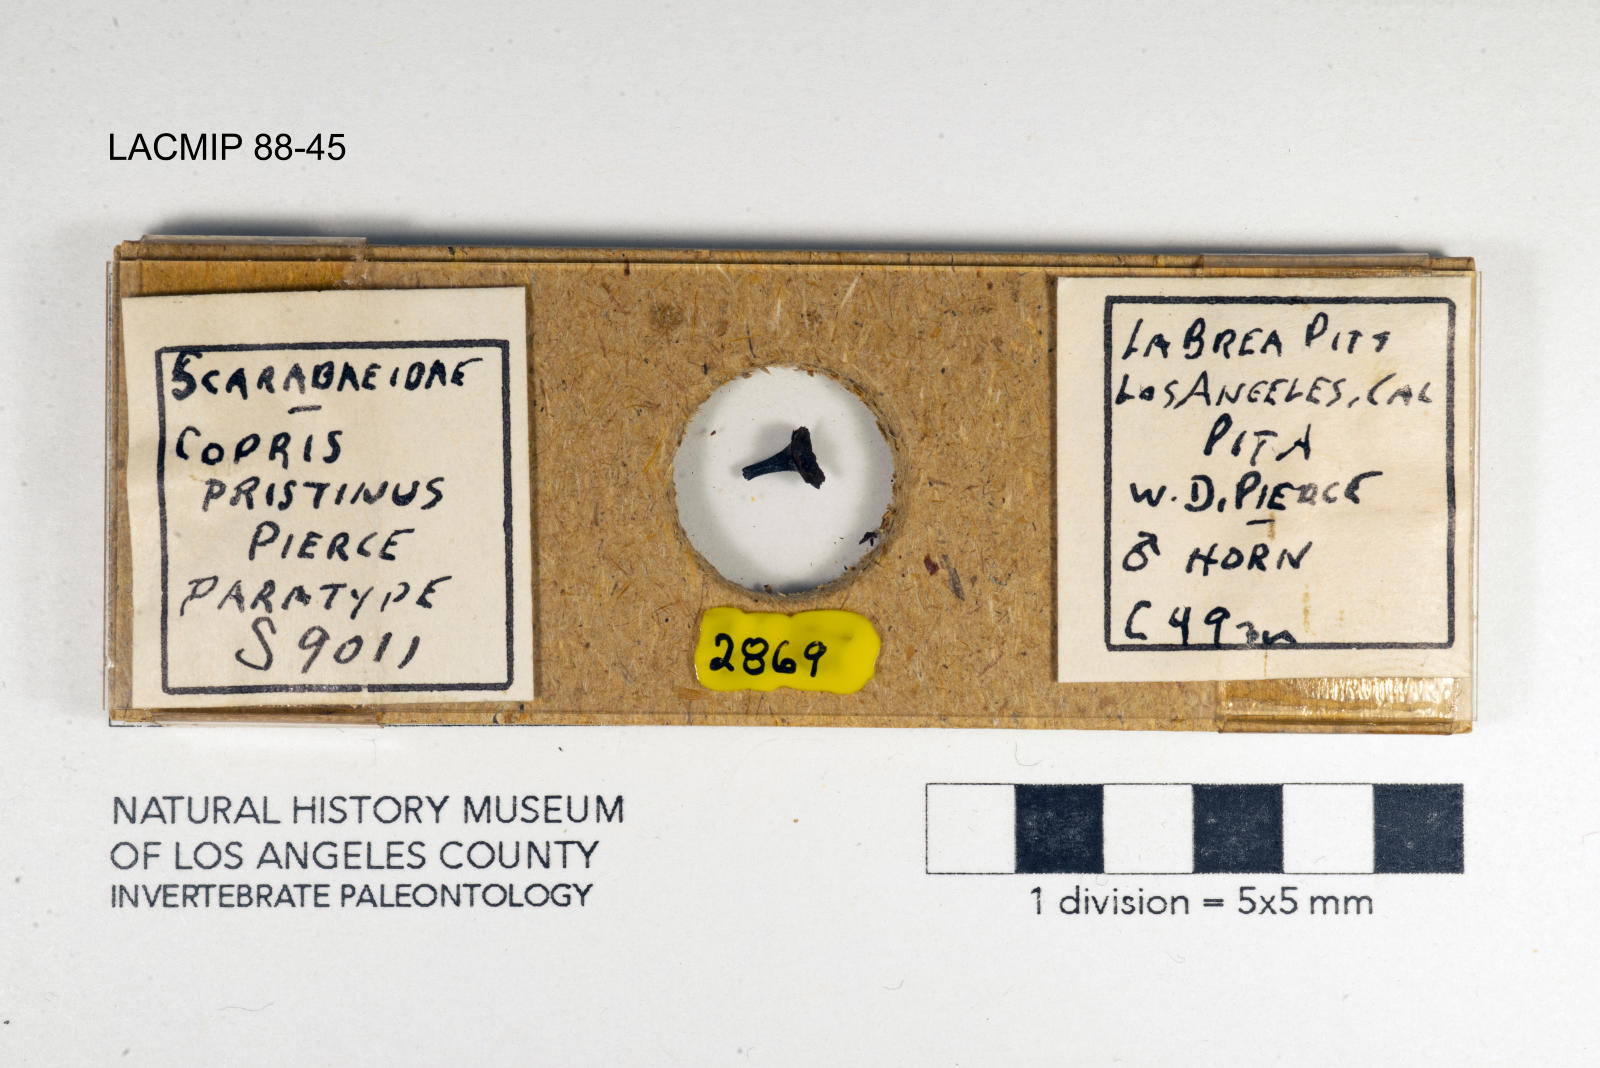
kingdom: Animalia
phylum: Arthropoda
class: Insecta
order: Coleoptera
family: Scarabaeidae
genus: Copris
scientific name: Copris pristinus
